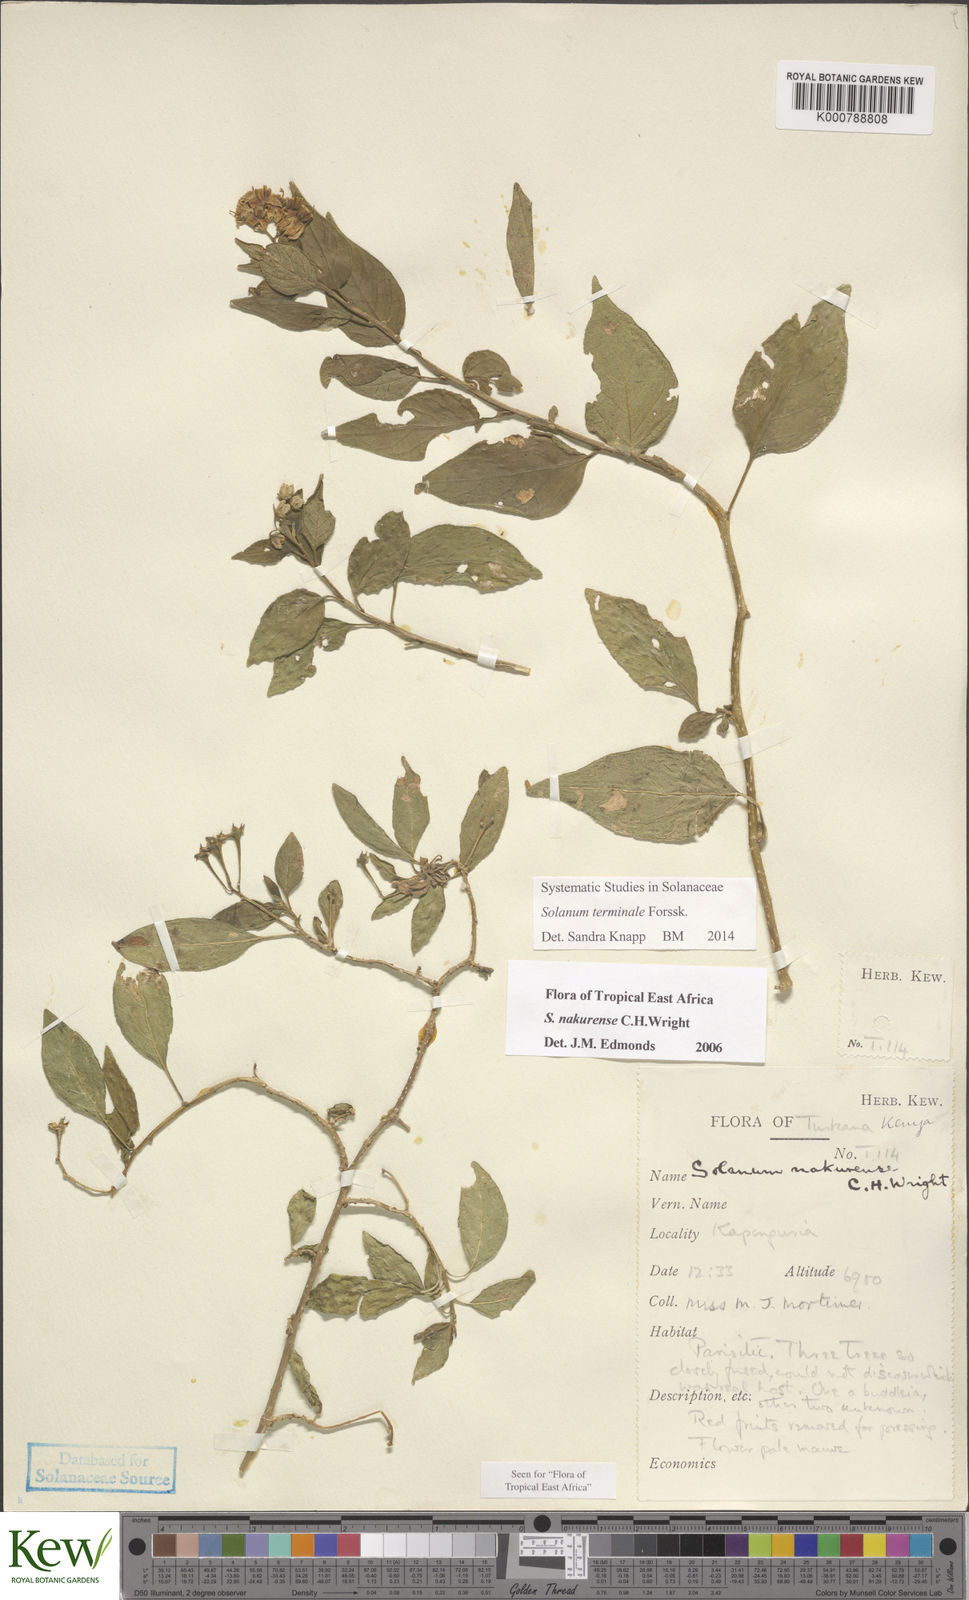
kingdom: Plantae
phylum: Tracheophyta
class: Magnoliopsida
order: Solanales
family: Solanaceae
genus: Solanum
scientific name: Solanum terminale
